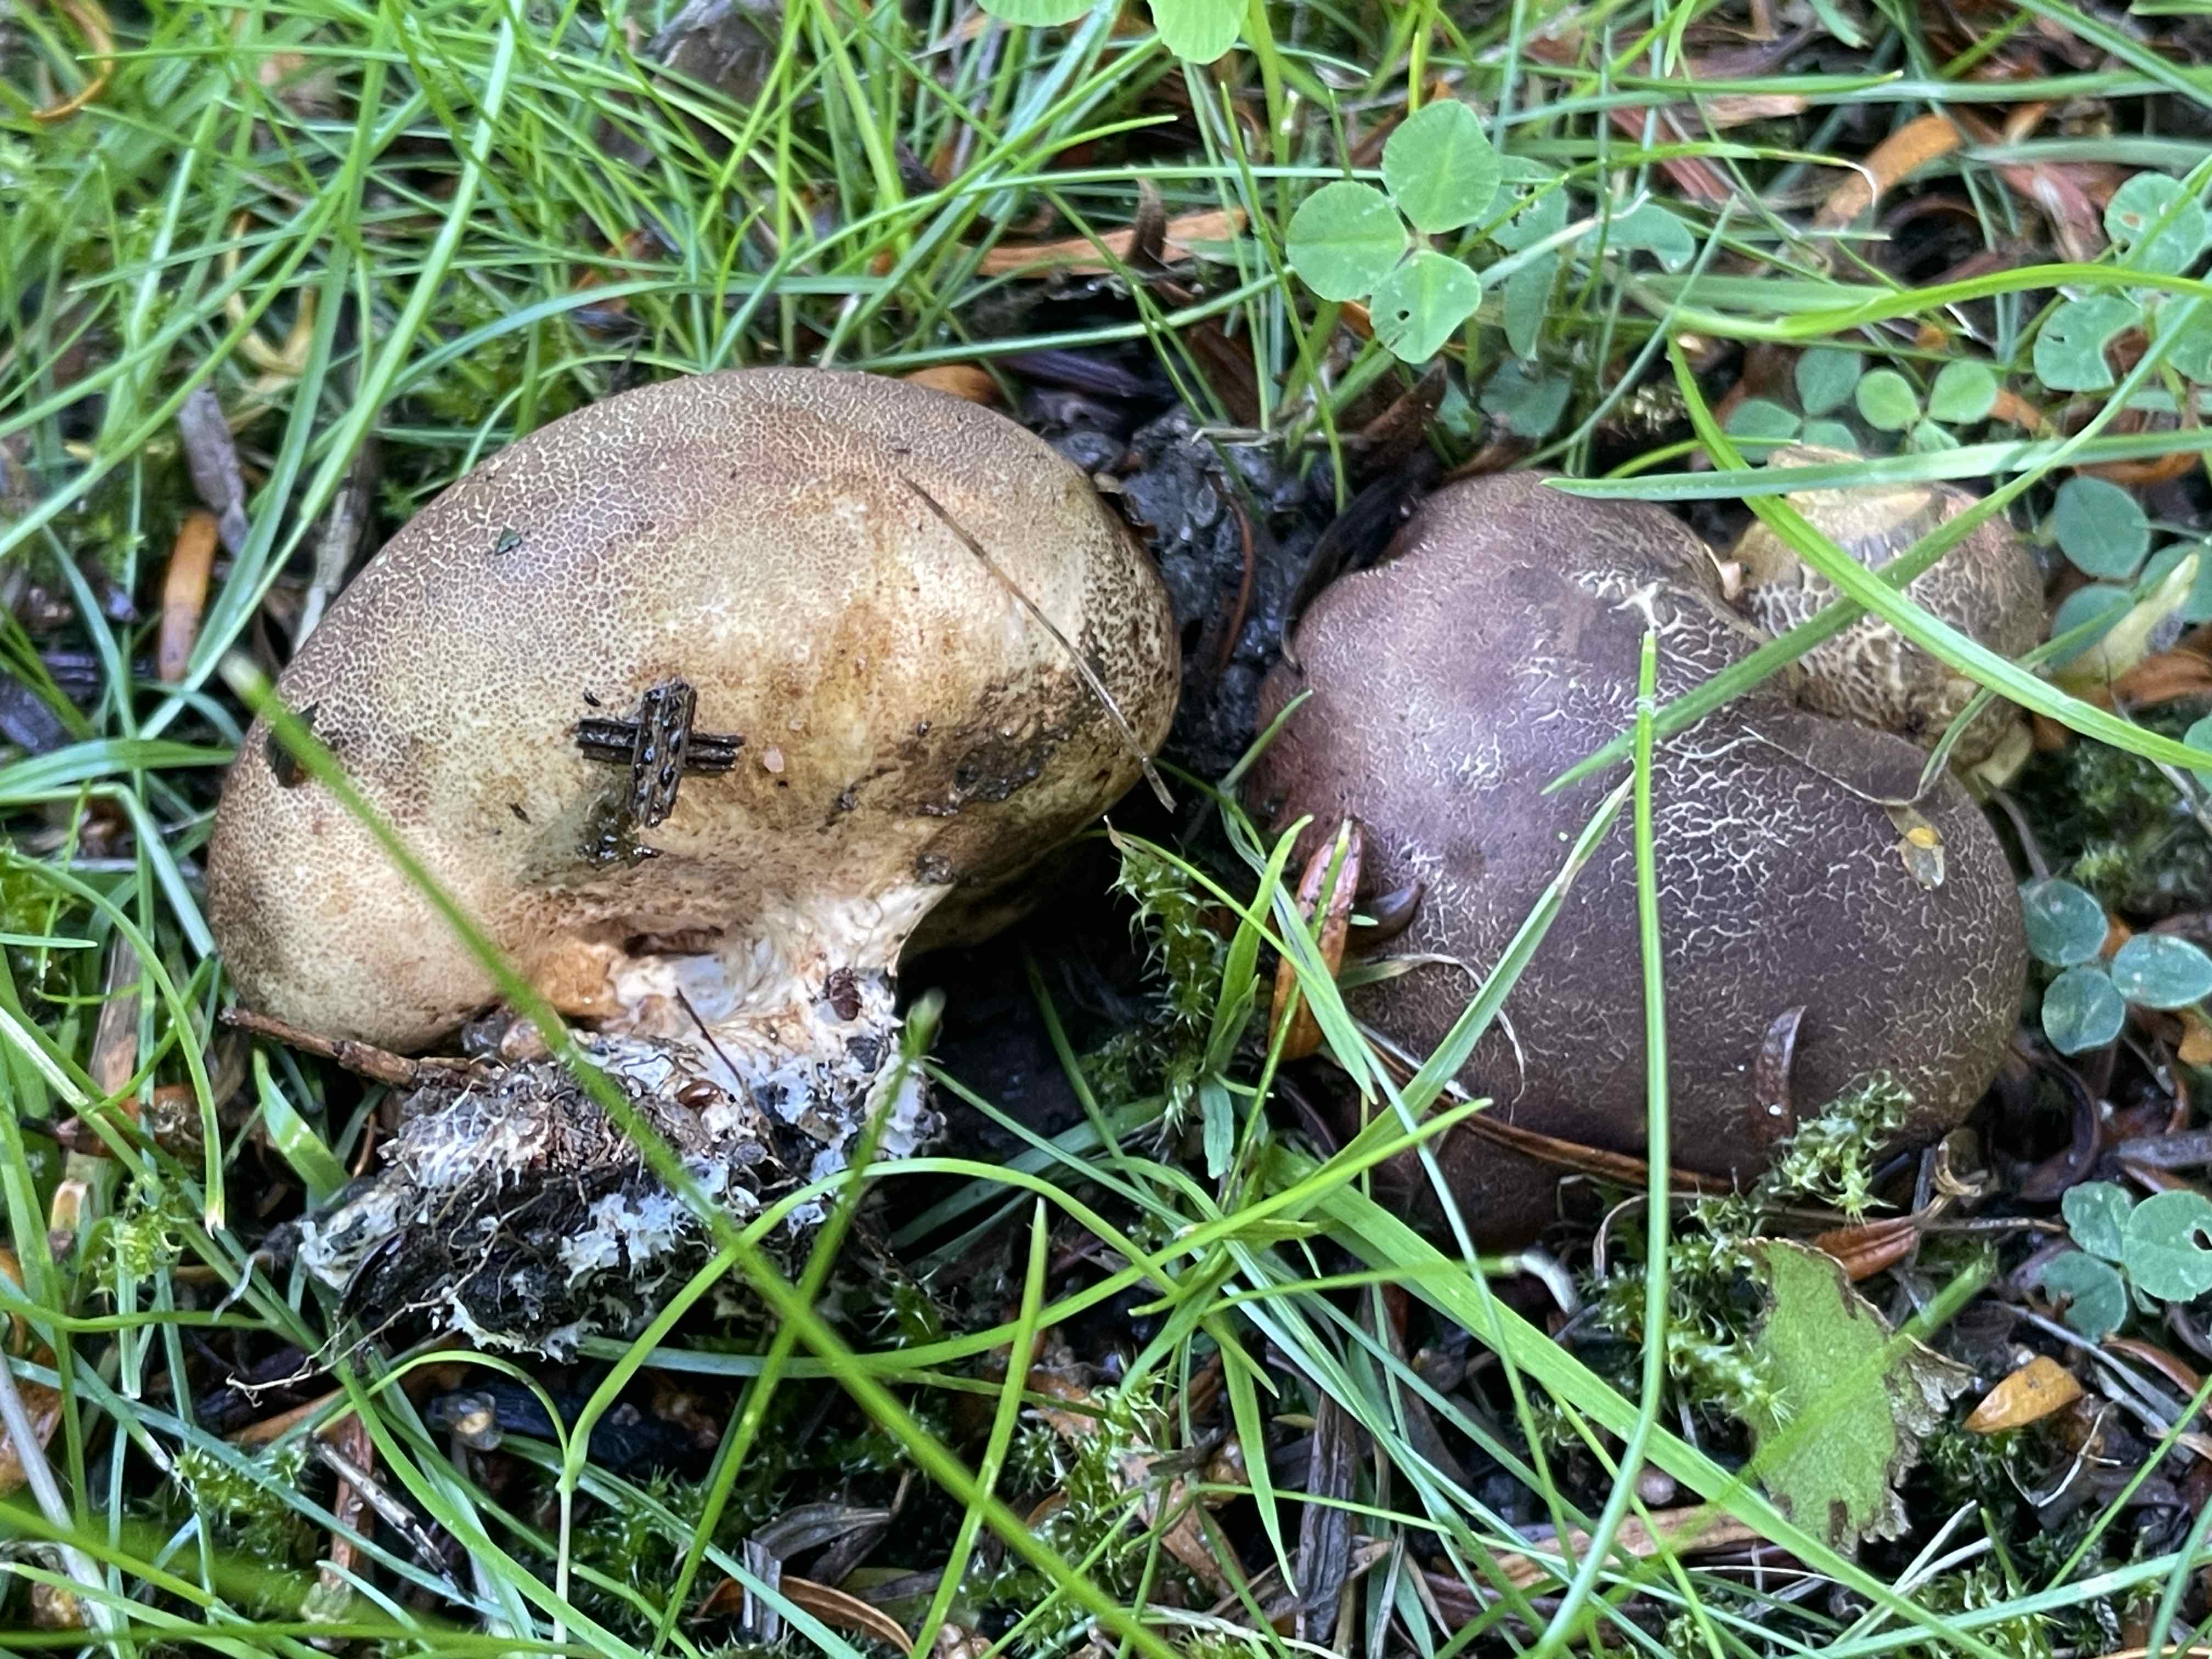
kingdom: Fungi
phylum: Basidiomycota
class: Agaricomycetes
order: Boletales
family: Sclerodermataceae
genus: Scleroderma
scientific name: Scleroderma bovista
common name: bovist-bruskbold
